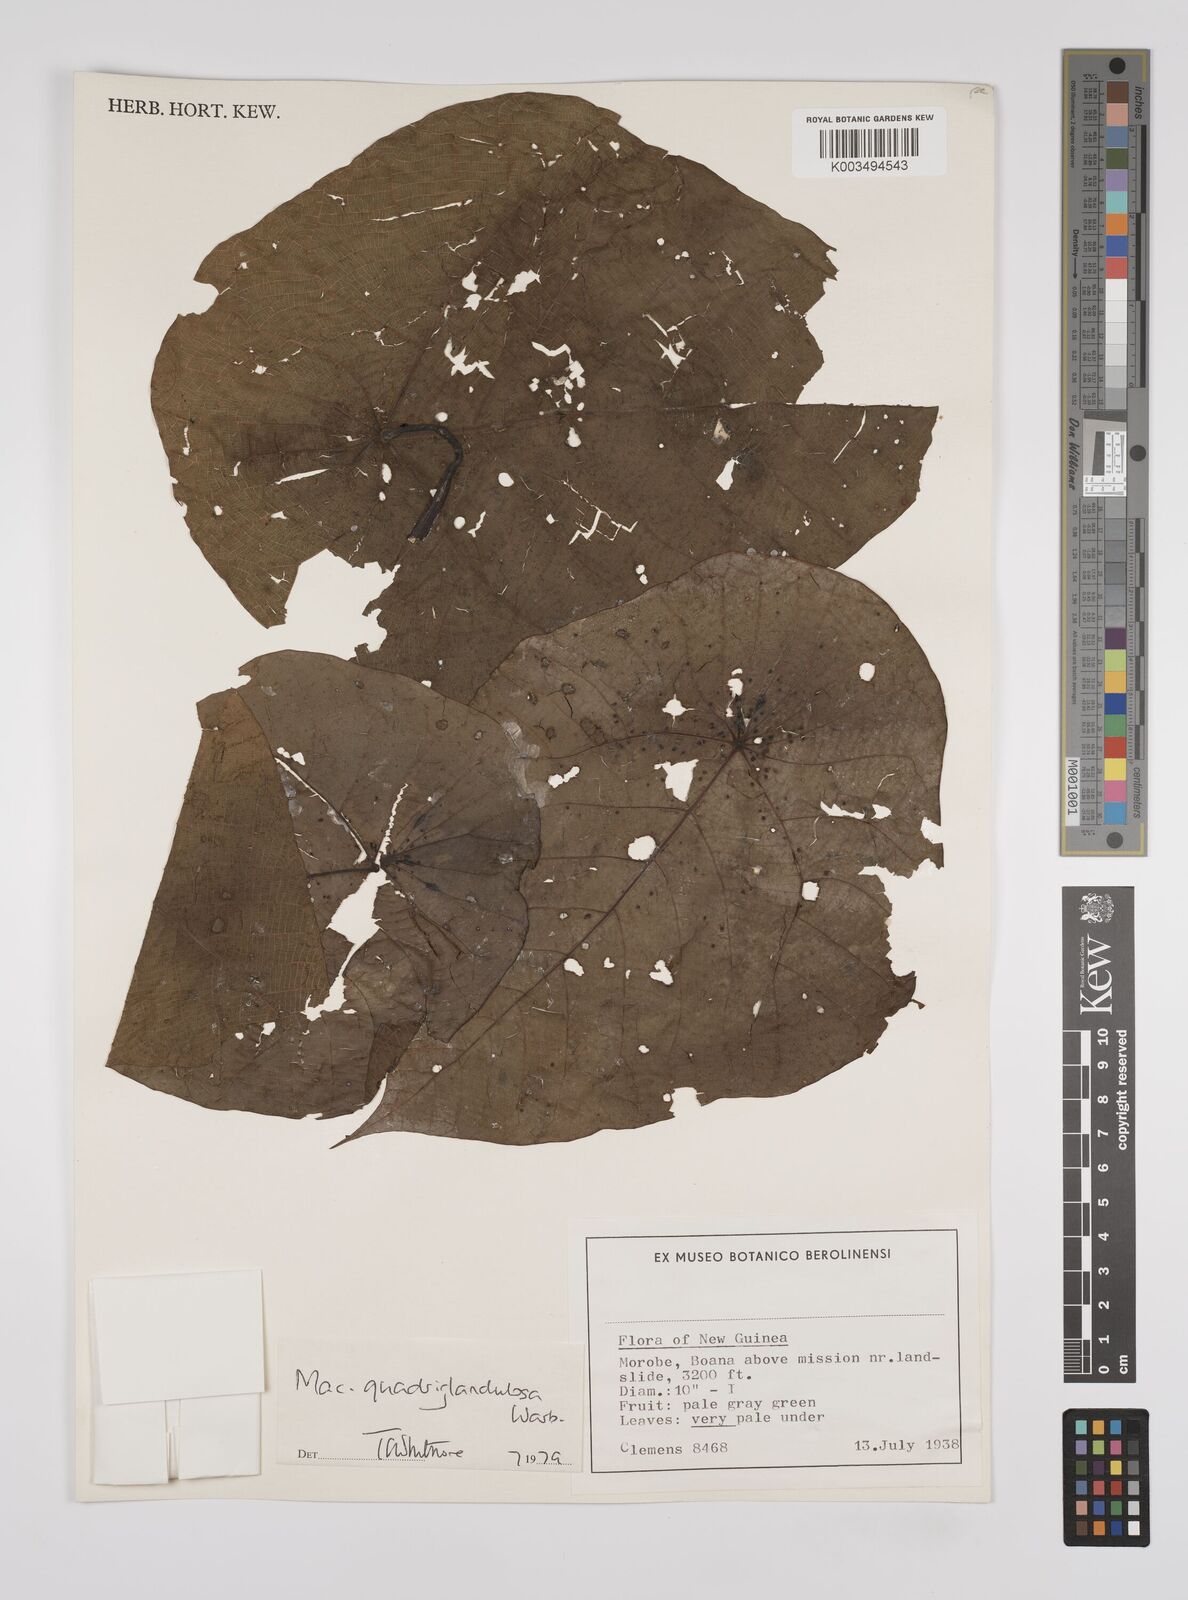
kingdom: Plantae
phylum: Tracheophyta
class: Magnoliopsida
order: Malpighiales
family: Euphorbiaceae
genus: Macaranga
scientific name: Macaranga quadriglandulosa
